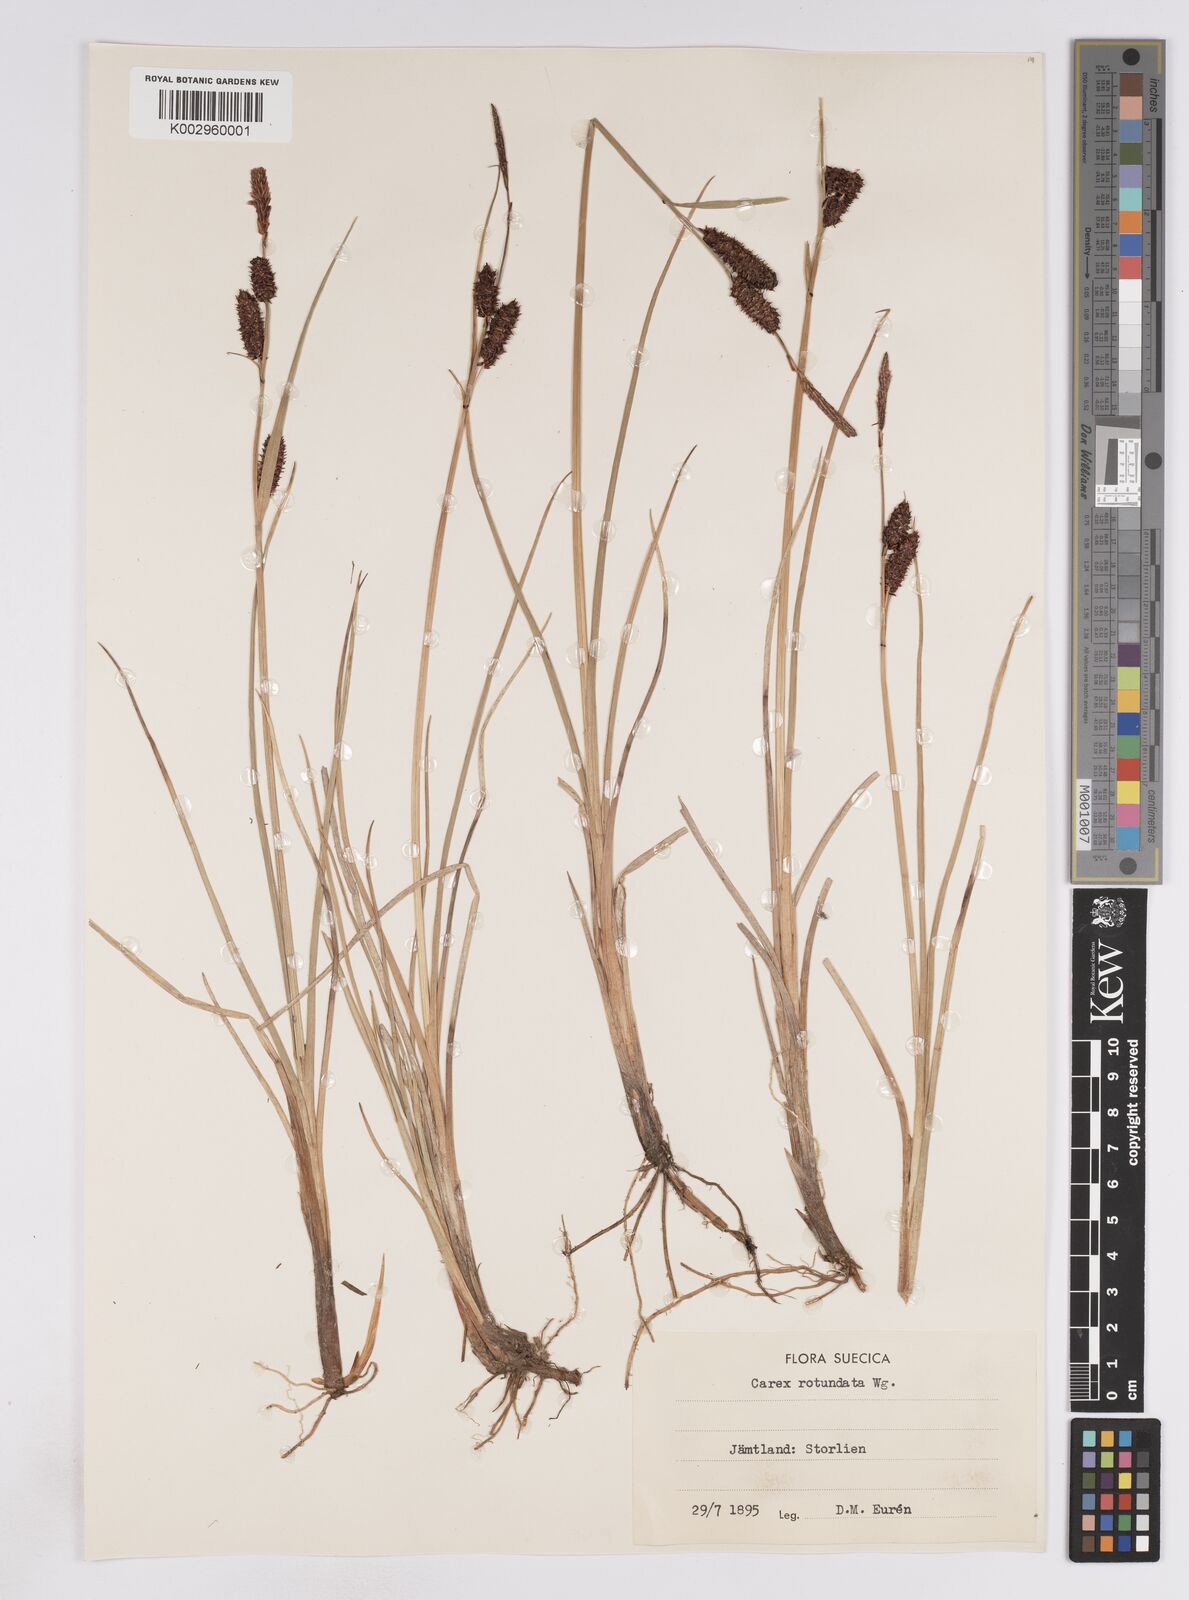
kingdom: Plantae
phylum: Tracheophyta
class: Liliopsida
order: Poales
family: Cyperaceae
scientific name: Cyperaceae
